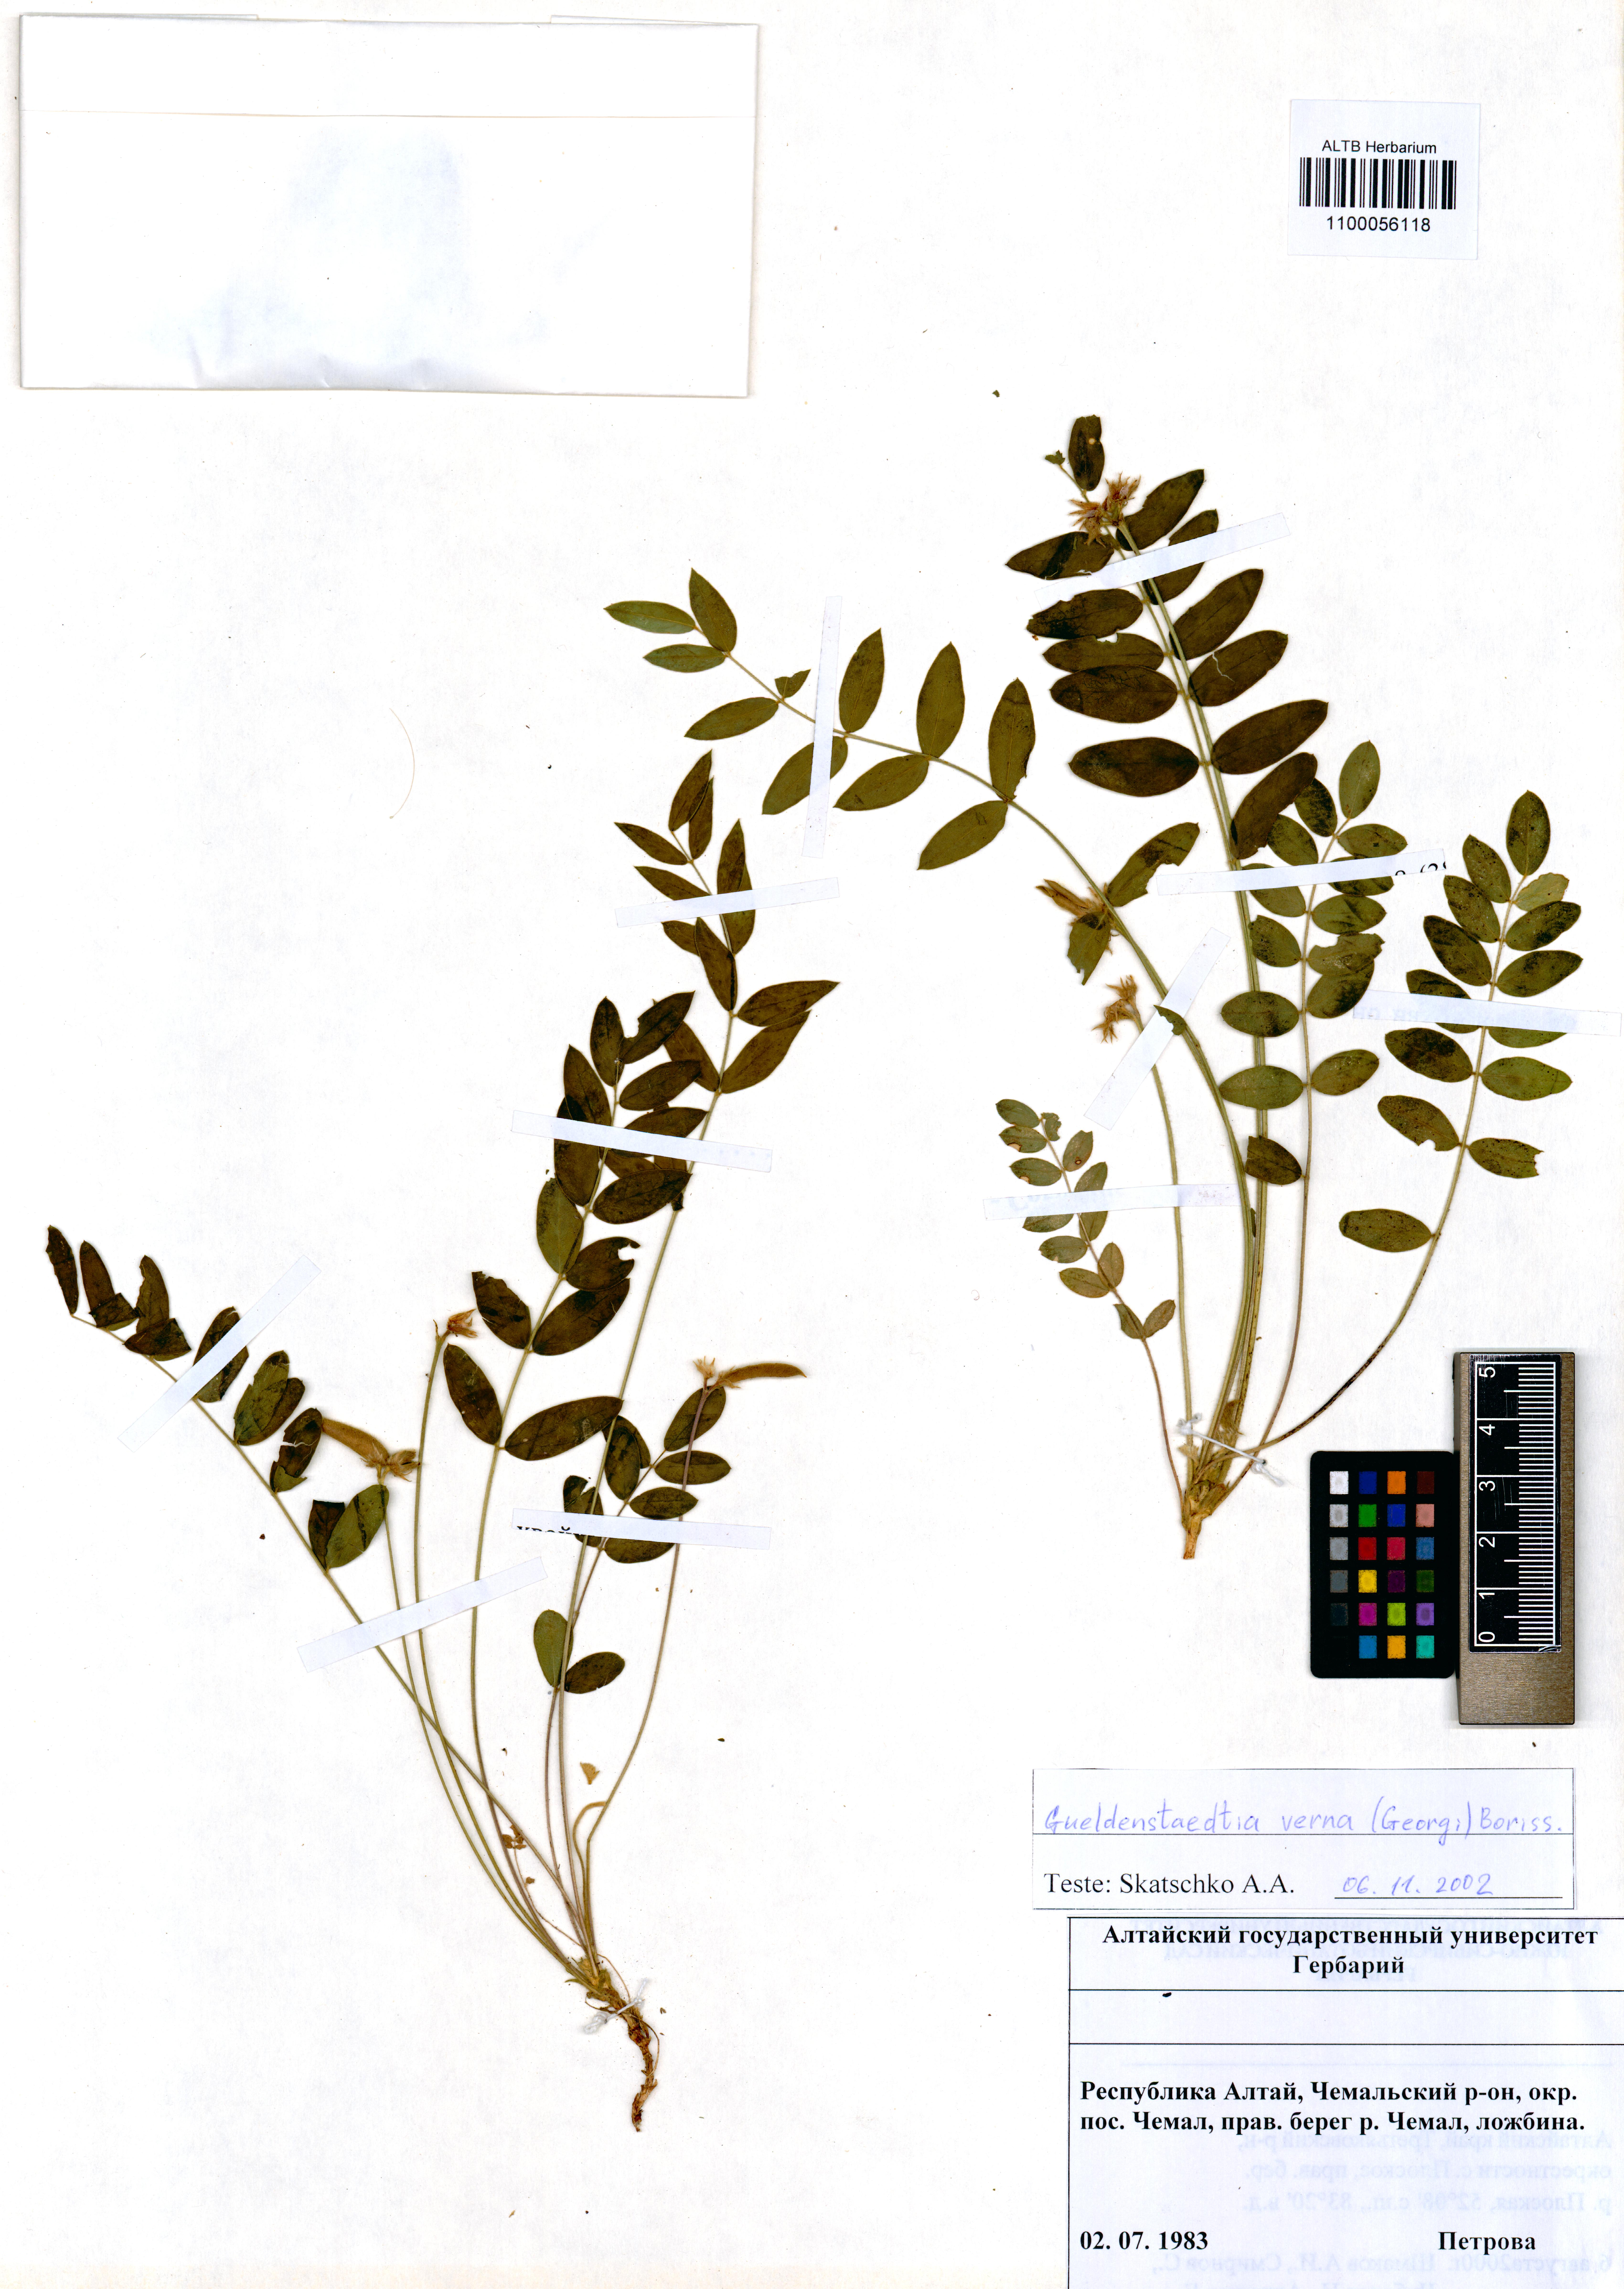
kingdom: Plantae
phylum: Tracheophyta
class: Magnoliopsida
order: Fabales
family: Fabaceae
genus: Gueldenstaedtia
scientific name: Gueldenstaedtia verna
